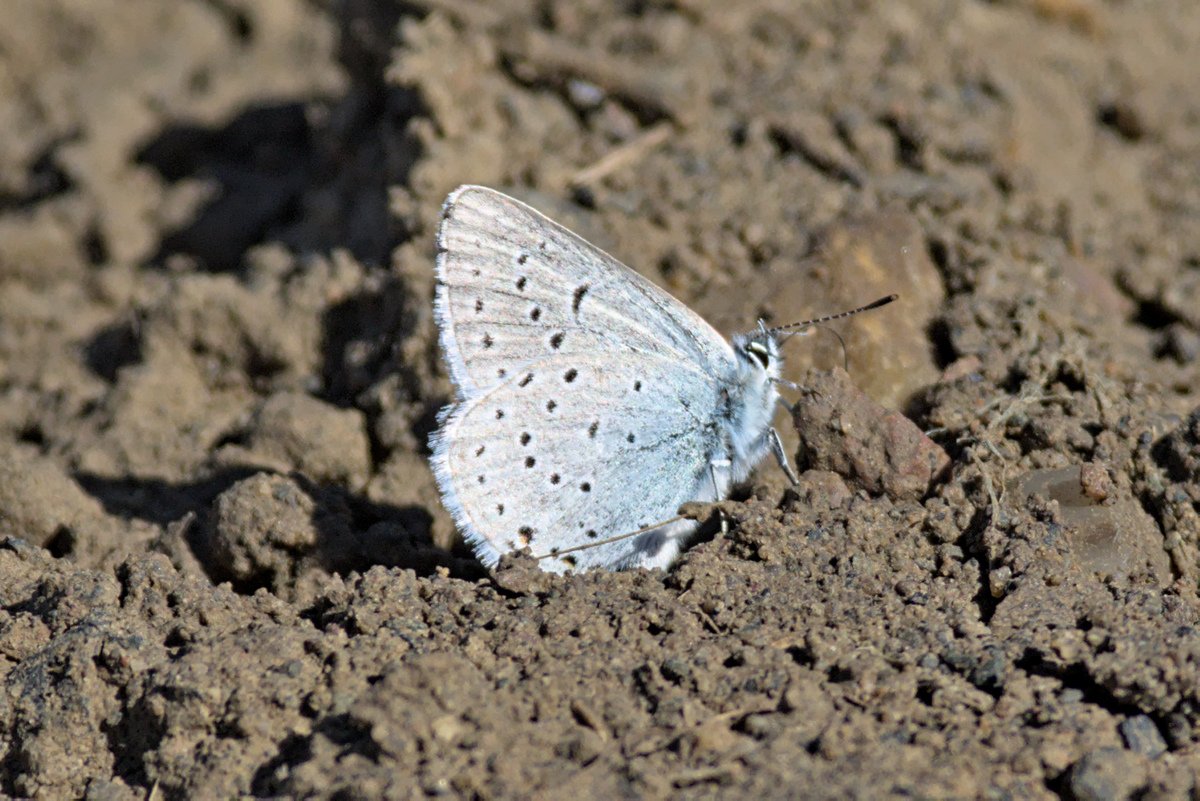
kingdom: Animalia
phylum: Arthropoda
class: Insecta
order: Lepidoptera
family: Lycaenidae
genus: Plebejus
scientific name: Plebejus saepiolus
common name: Greenish Blue
